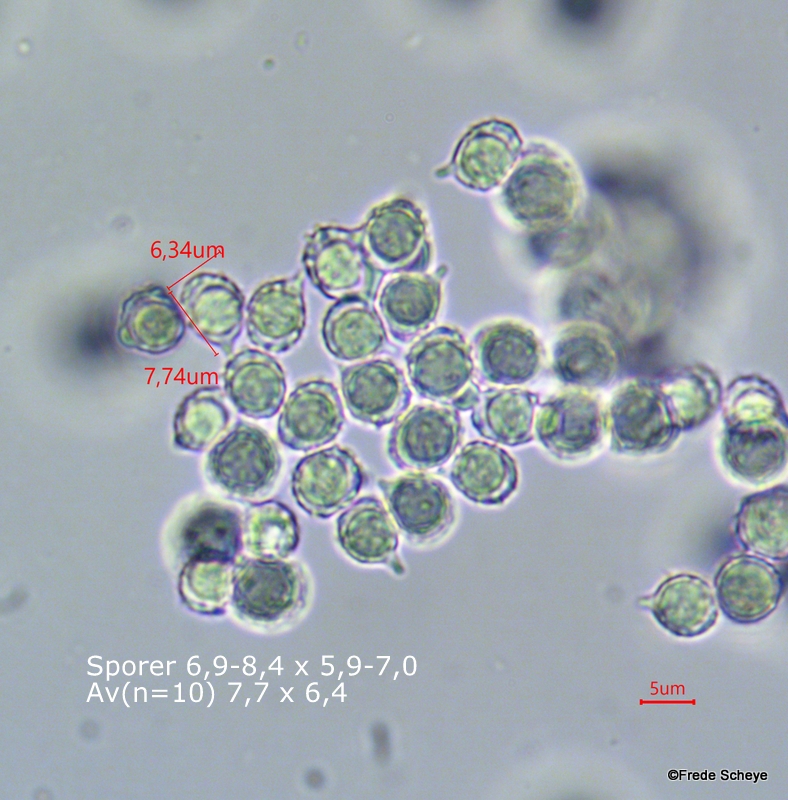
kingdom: Fungi
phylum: Basidiomycota
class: Agaricomycetes
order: Russulales
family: Russulaceae
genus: Russula
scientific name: Russula aurora
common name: rosa skørhat
